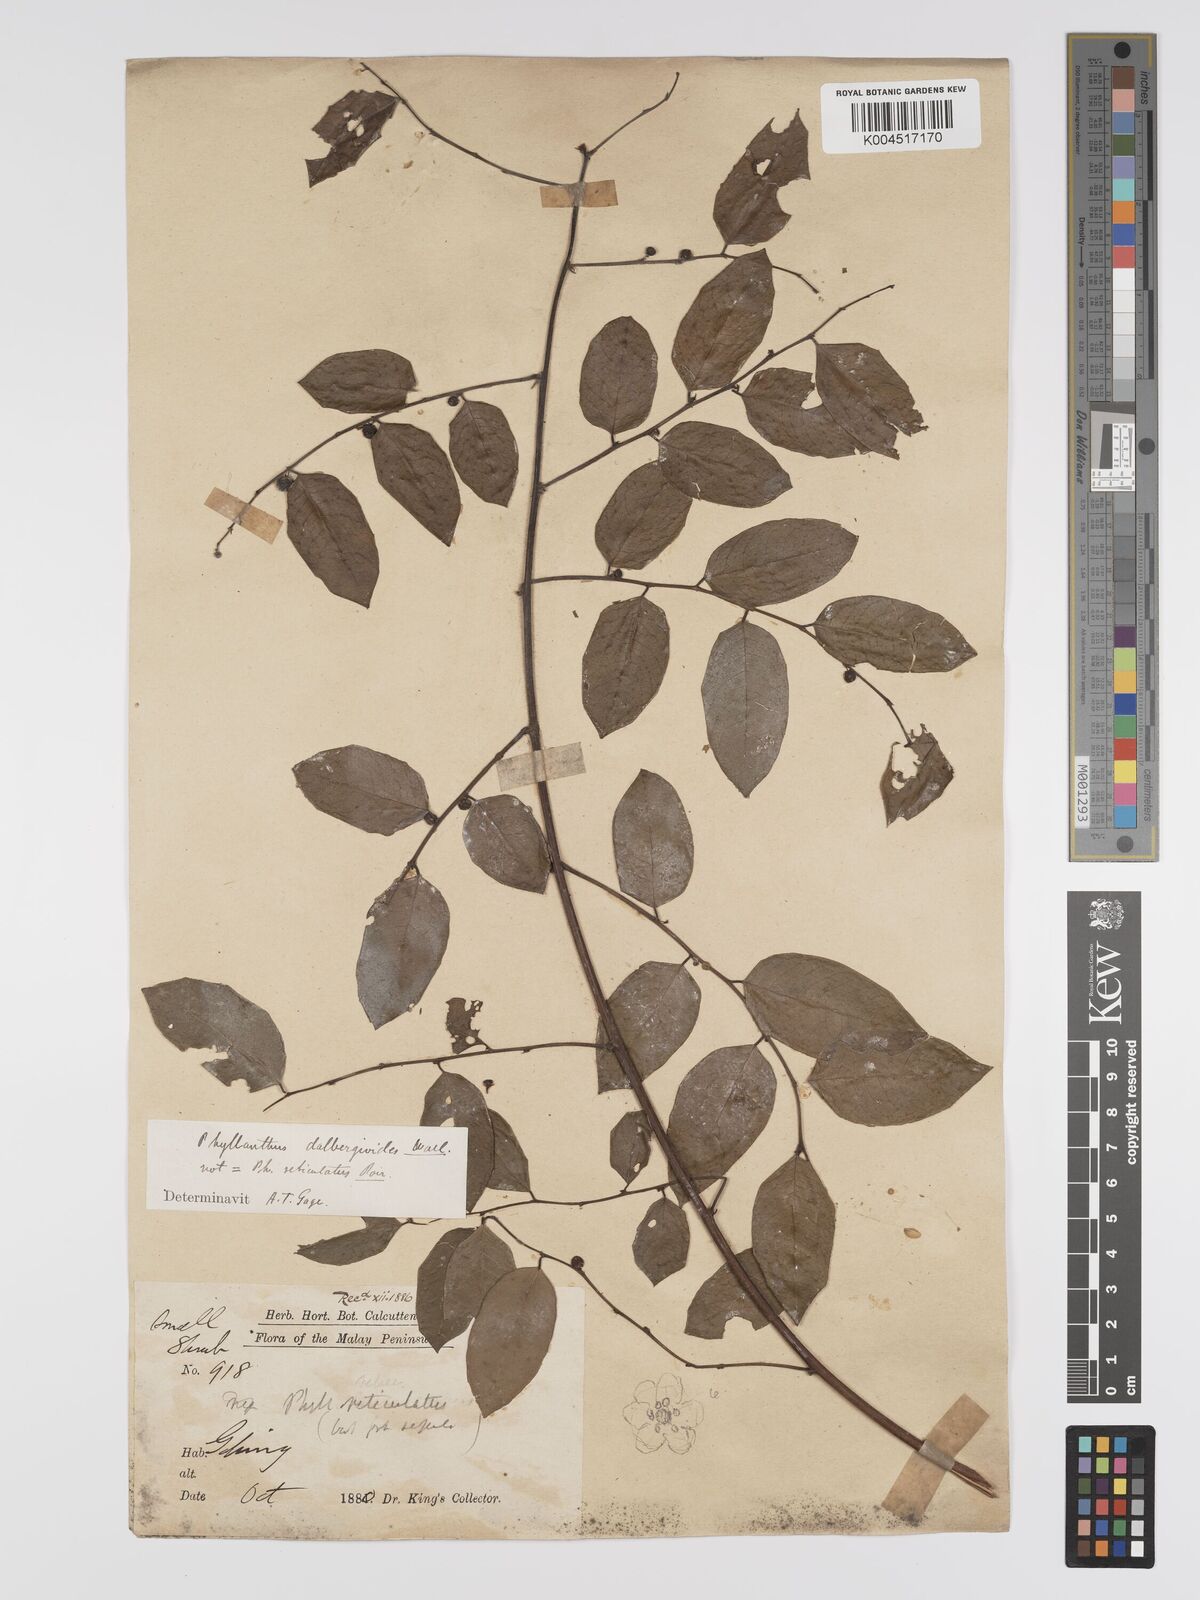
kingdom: Plantae
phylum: Tracheophyta
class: Magnoliopsida
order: Malpighiales
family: Phyllanthaceae
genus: Phyllanthus
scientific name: Phyllanthus microcarpus
